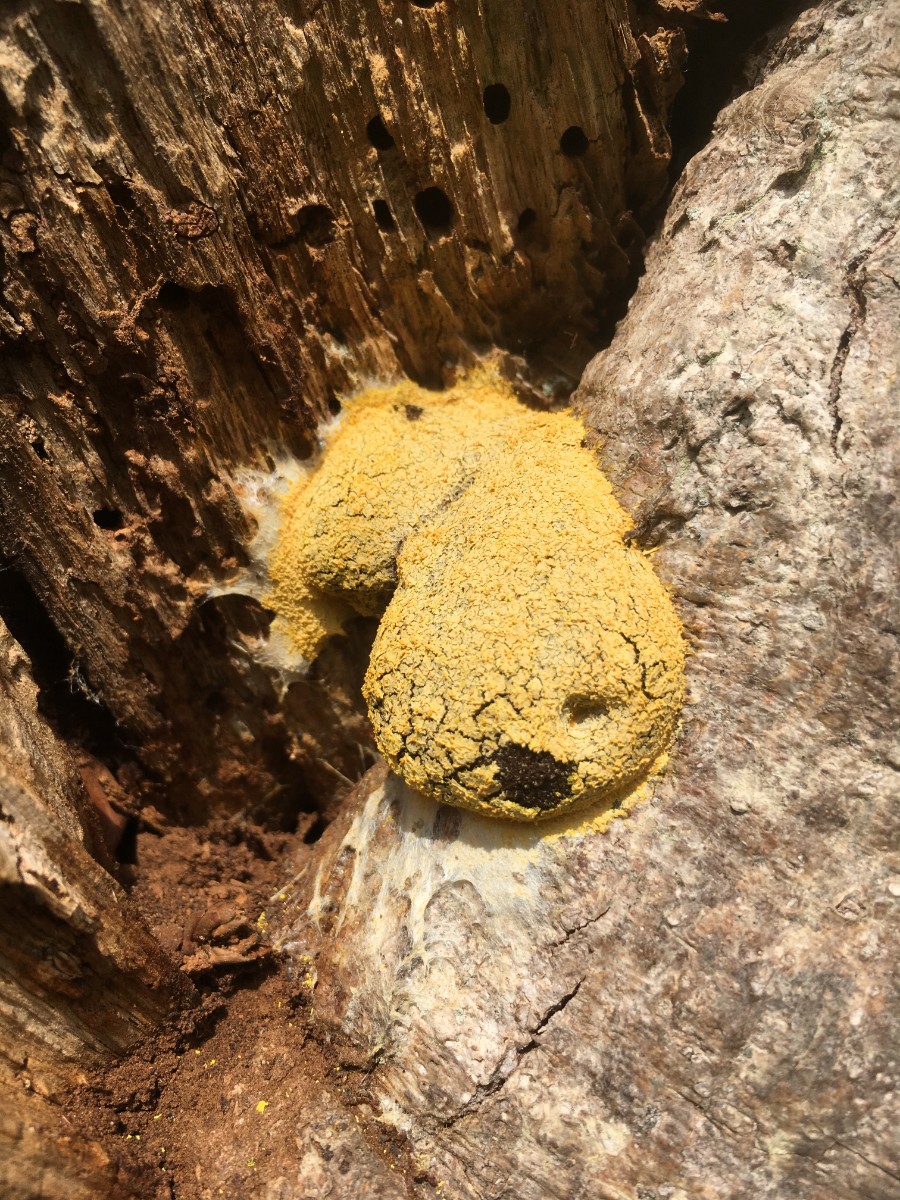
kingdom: Protozoa
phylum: Mycetozoa
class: Myxomycetes
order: Physarales
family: Physaraceae
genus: Fuligo
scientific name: Fuligo septica
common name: Dog vomit slime mold
